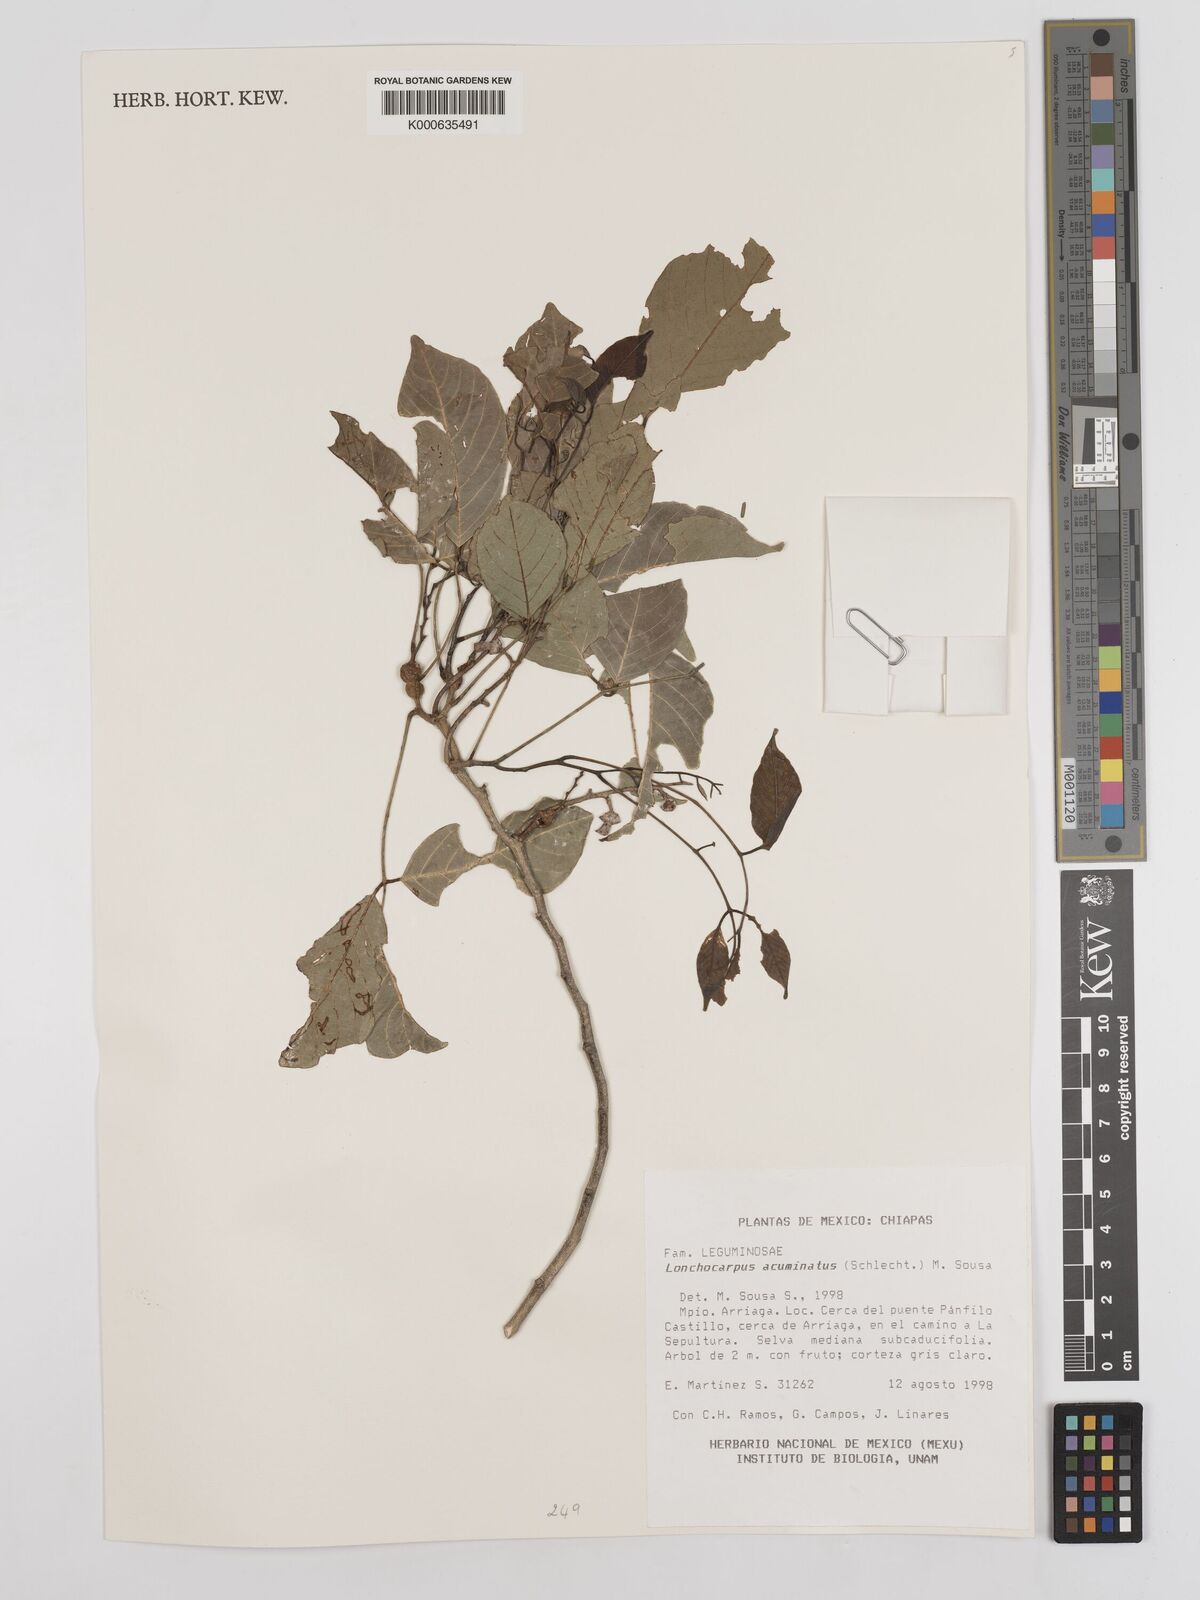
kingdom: Plantae
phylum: Tracheophyta
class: Magnoliopsida
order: Fabales
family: Fabaceae
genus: Lonchocarpus
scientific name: Lonchocarpus acuminatus
